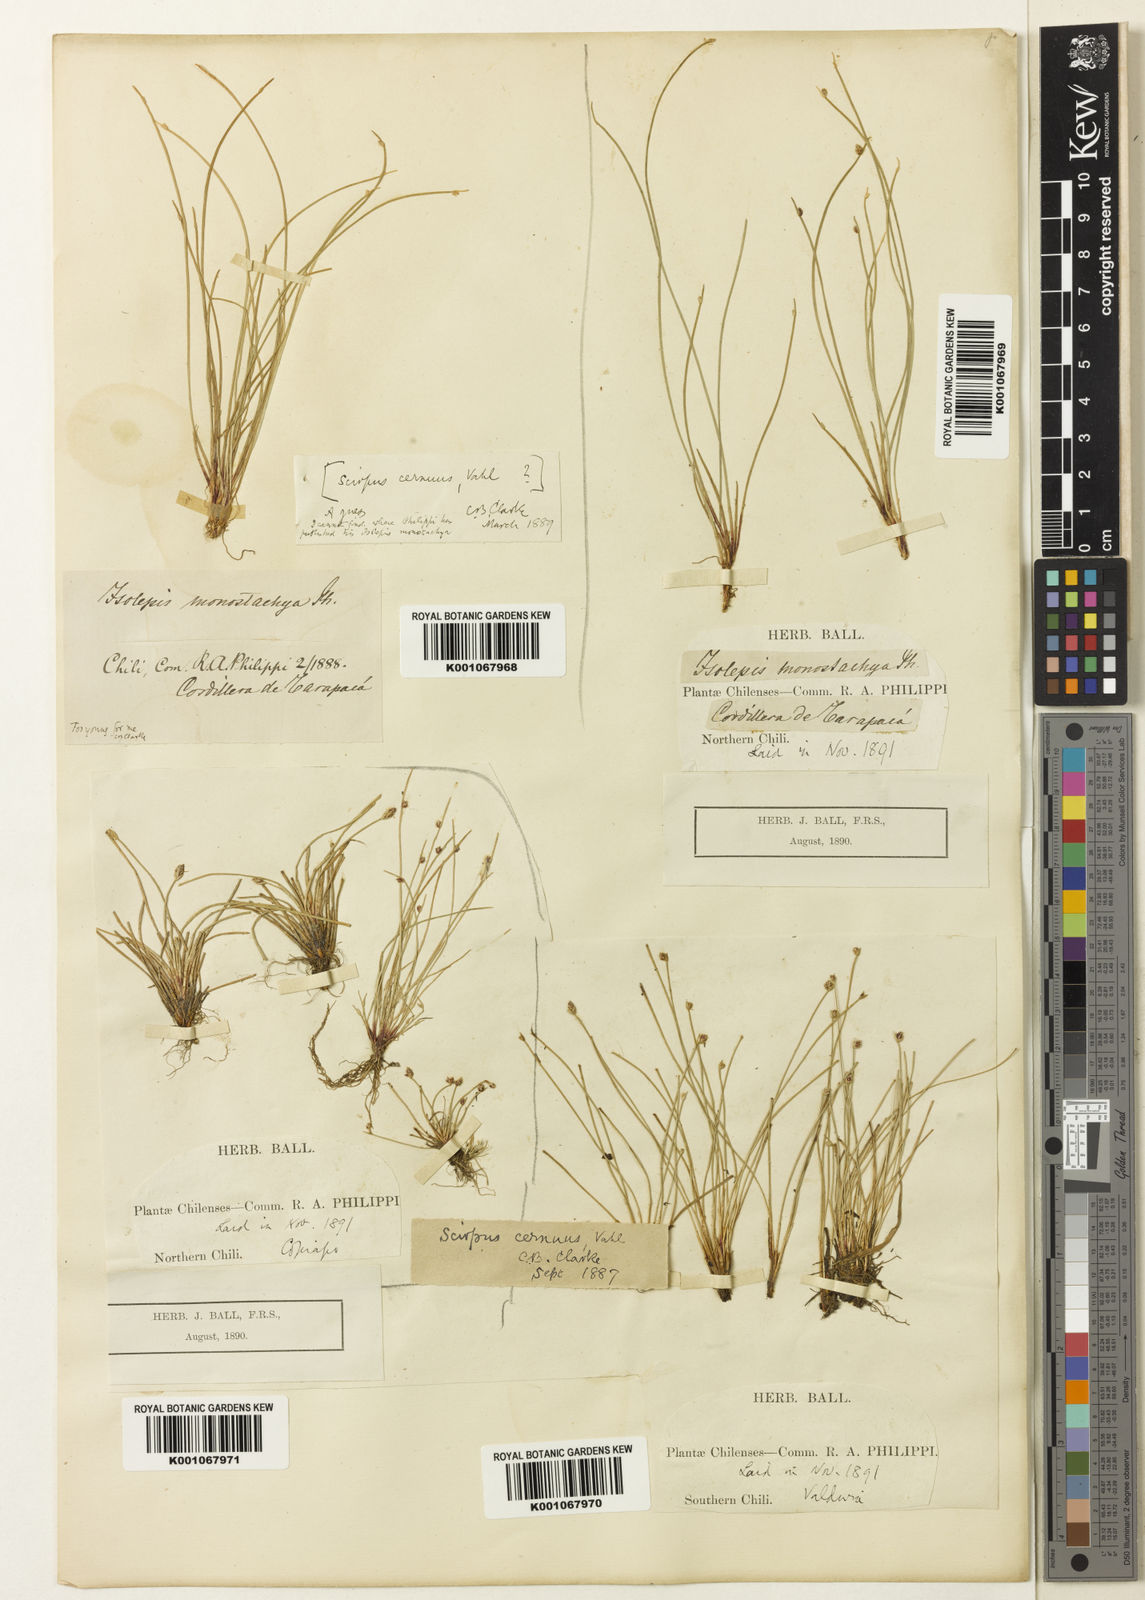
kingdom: Plantae
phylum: Tracheophyta
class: Liliopsida
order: Poales
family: Cyperaceae
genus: Isolepis
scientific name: Isolepis cernua
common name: Slender club-rush
